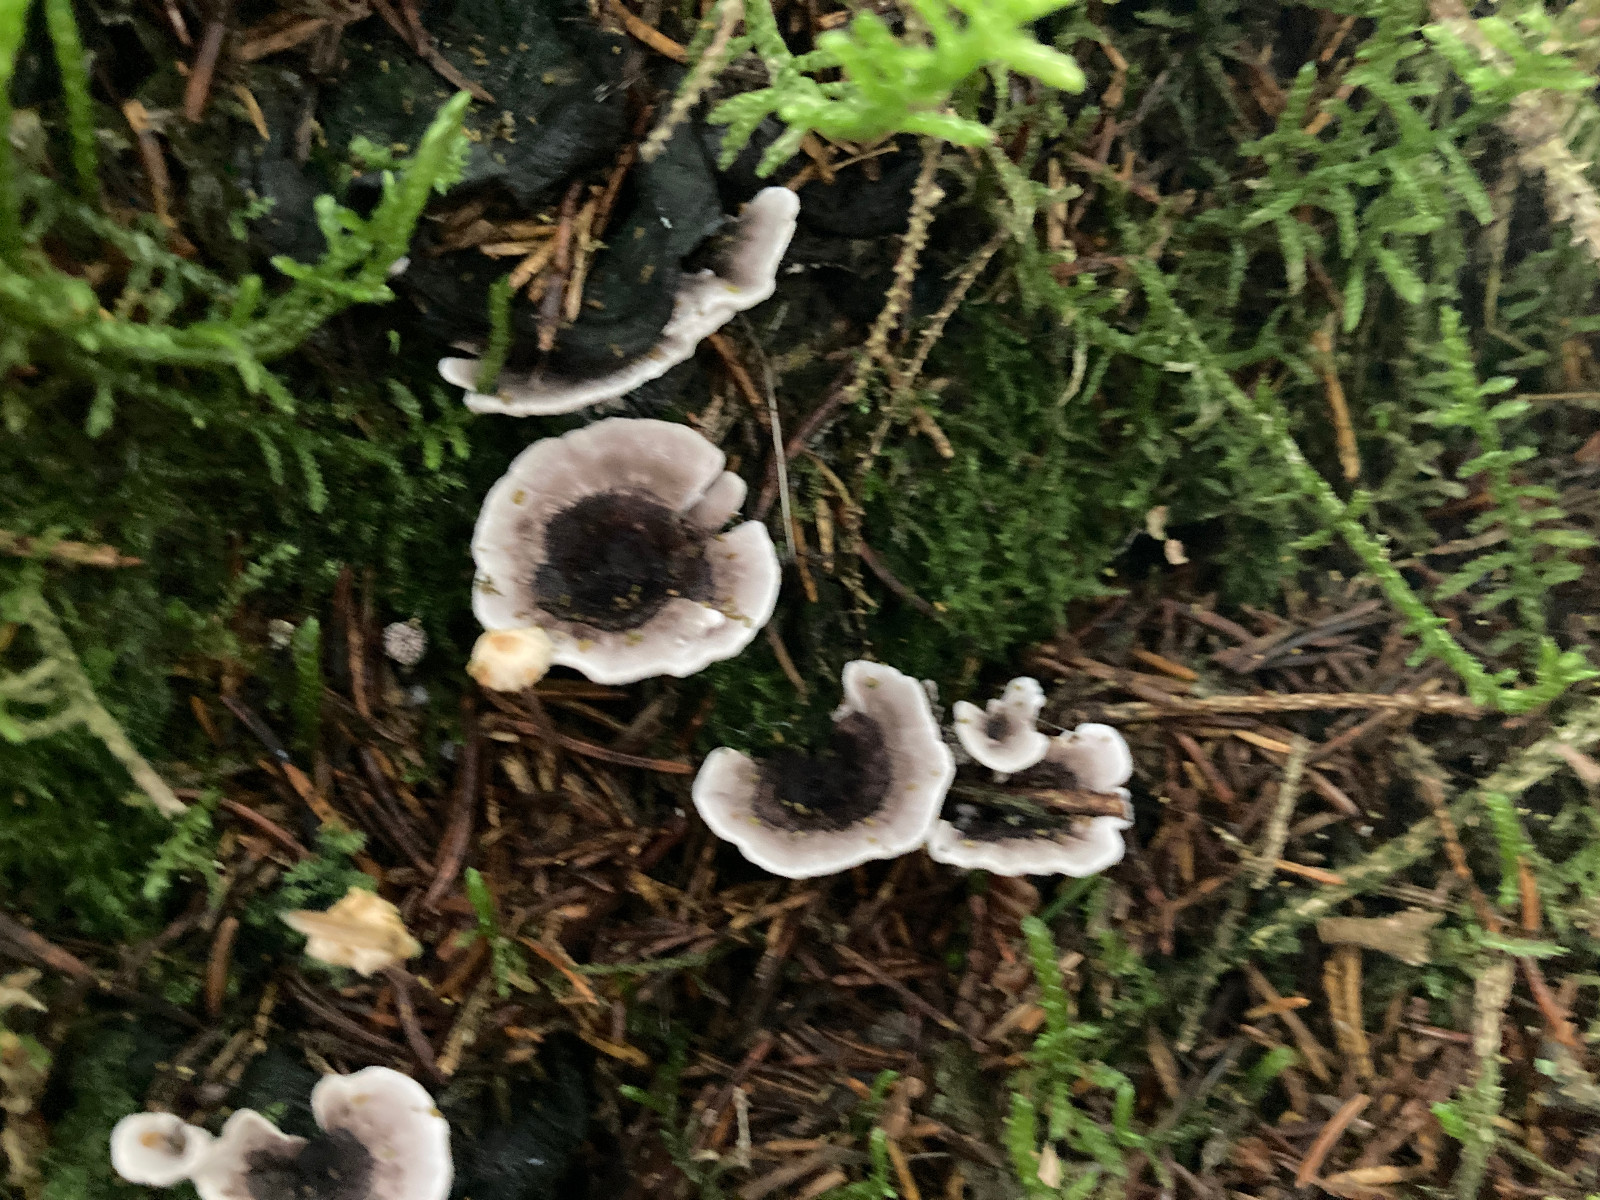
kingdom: Fungi
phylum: Basidiomycota
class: Agaricomycetes
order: Thelephorales
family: Thelephoraceae
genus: Phellodon
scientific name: Phellodon tomentosus
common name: vellugtende duftpigsvamp
